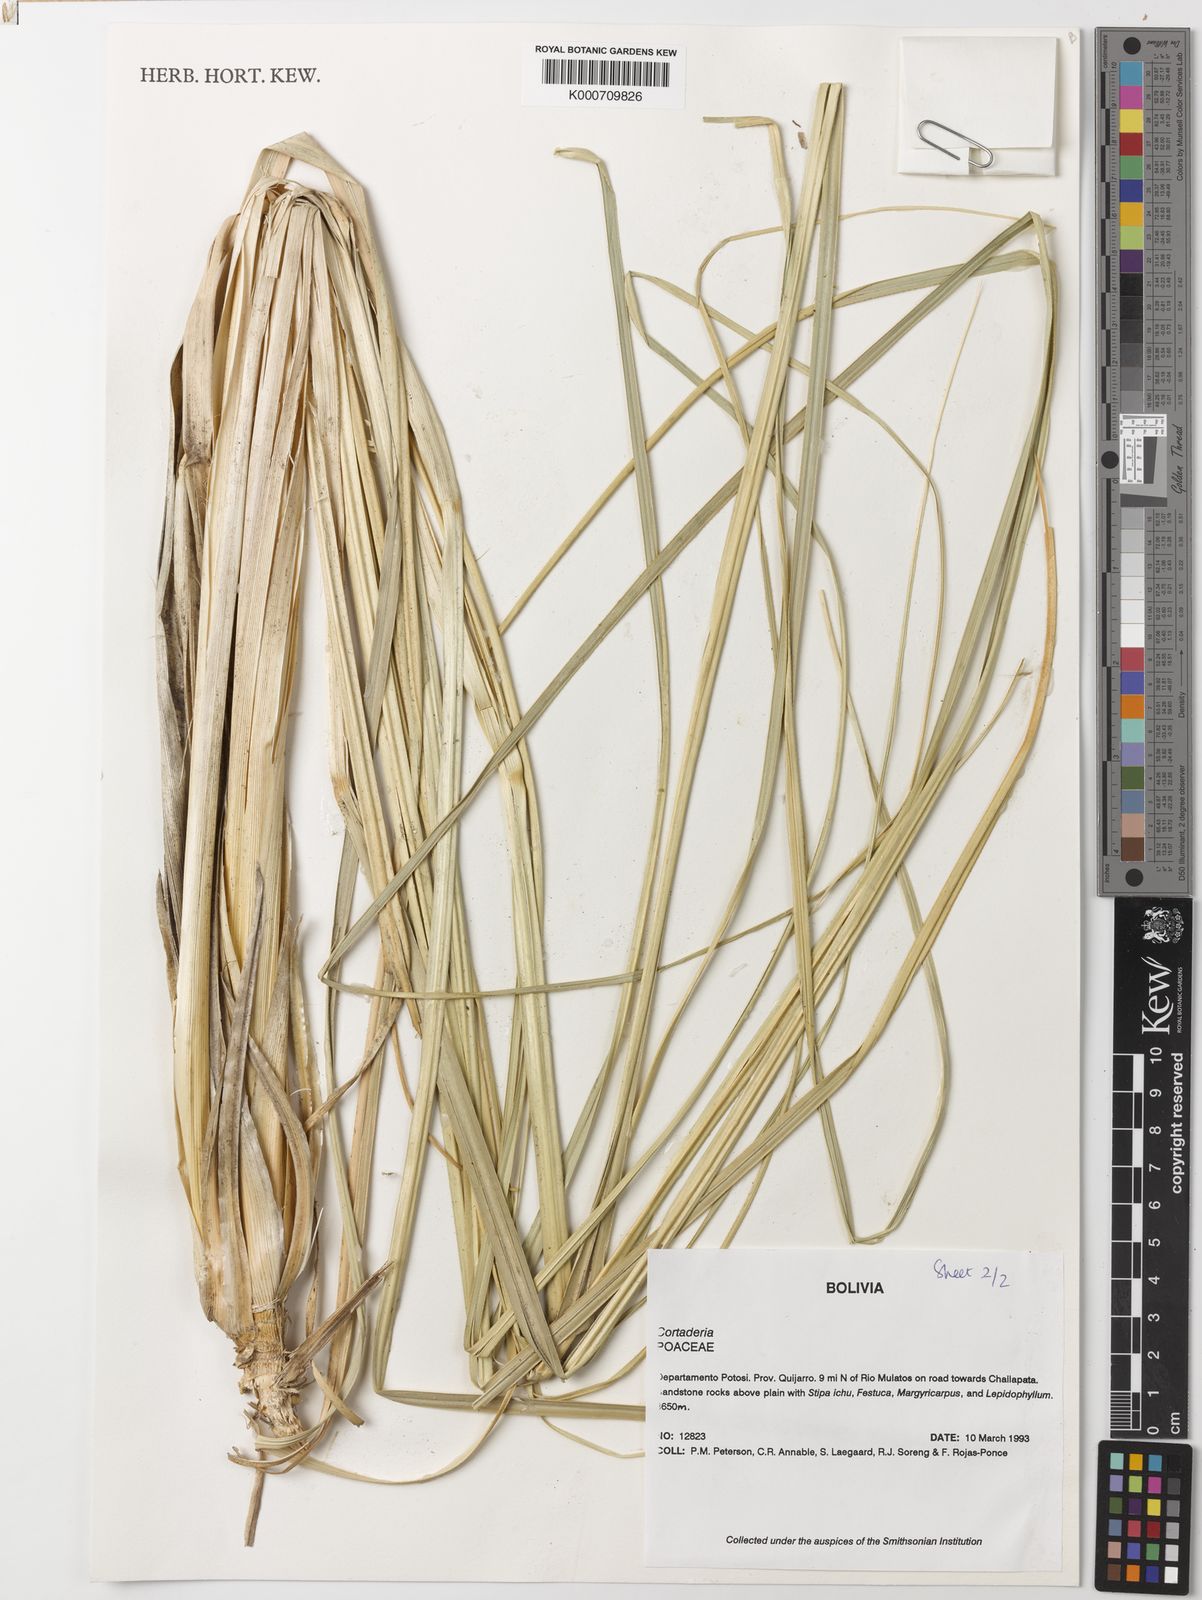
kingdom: Plantae
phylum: Tracheophyta
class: Liliopsida
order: Poales
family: Poaceae
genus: Cortaderia
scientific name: Cortaderia speciosa
